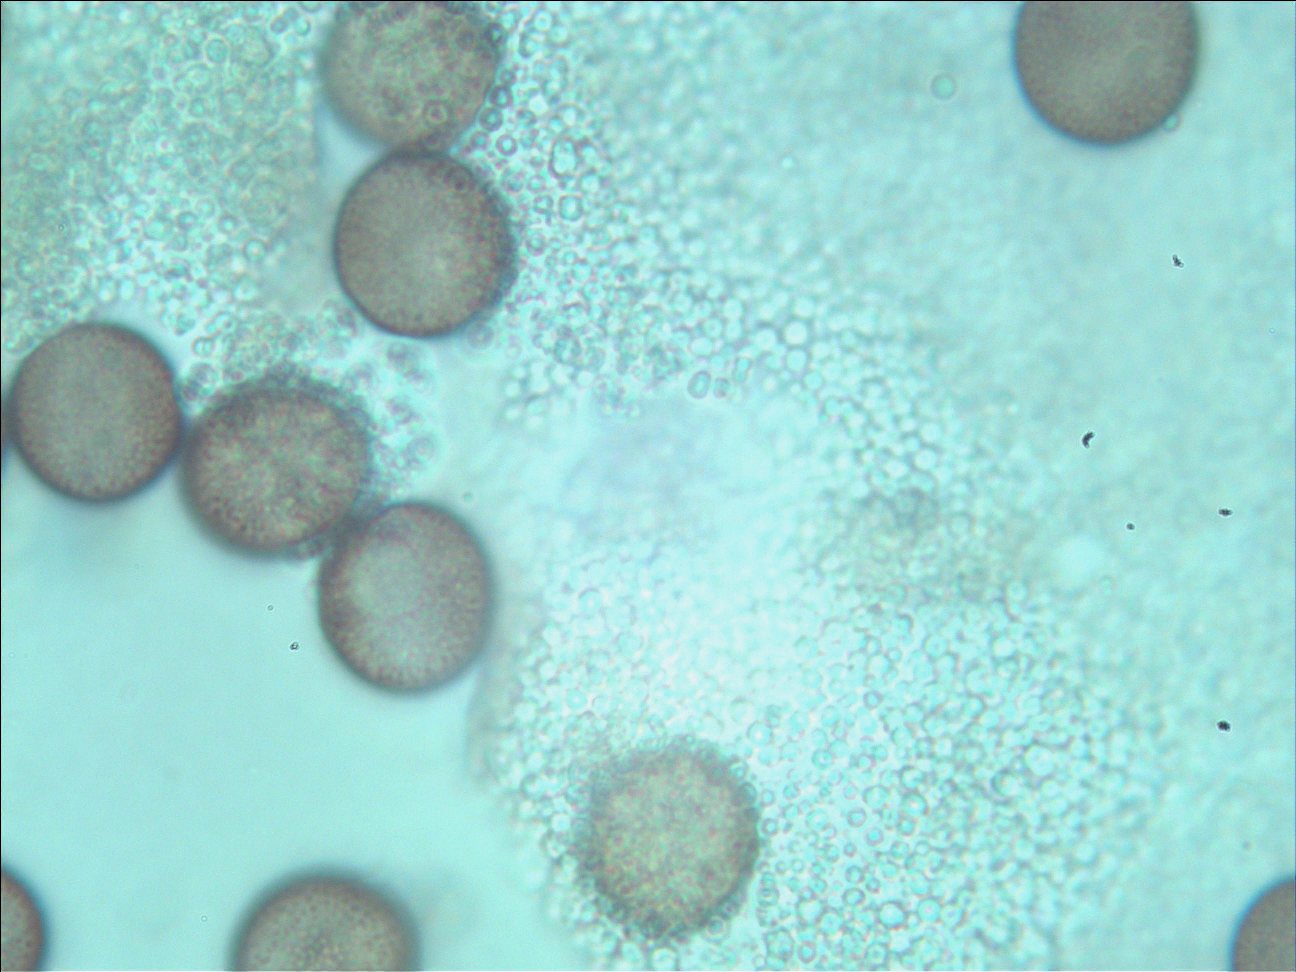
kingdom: Protozoa
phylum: Mycetozoa
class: Myxomycetes
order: Physarales
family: Physaraceae
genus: Badhamia
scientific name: Badhamia
